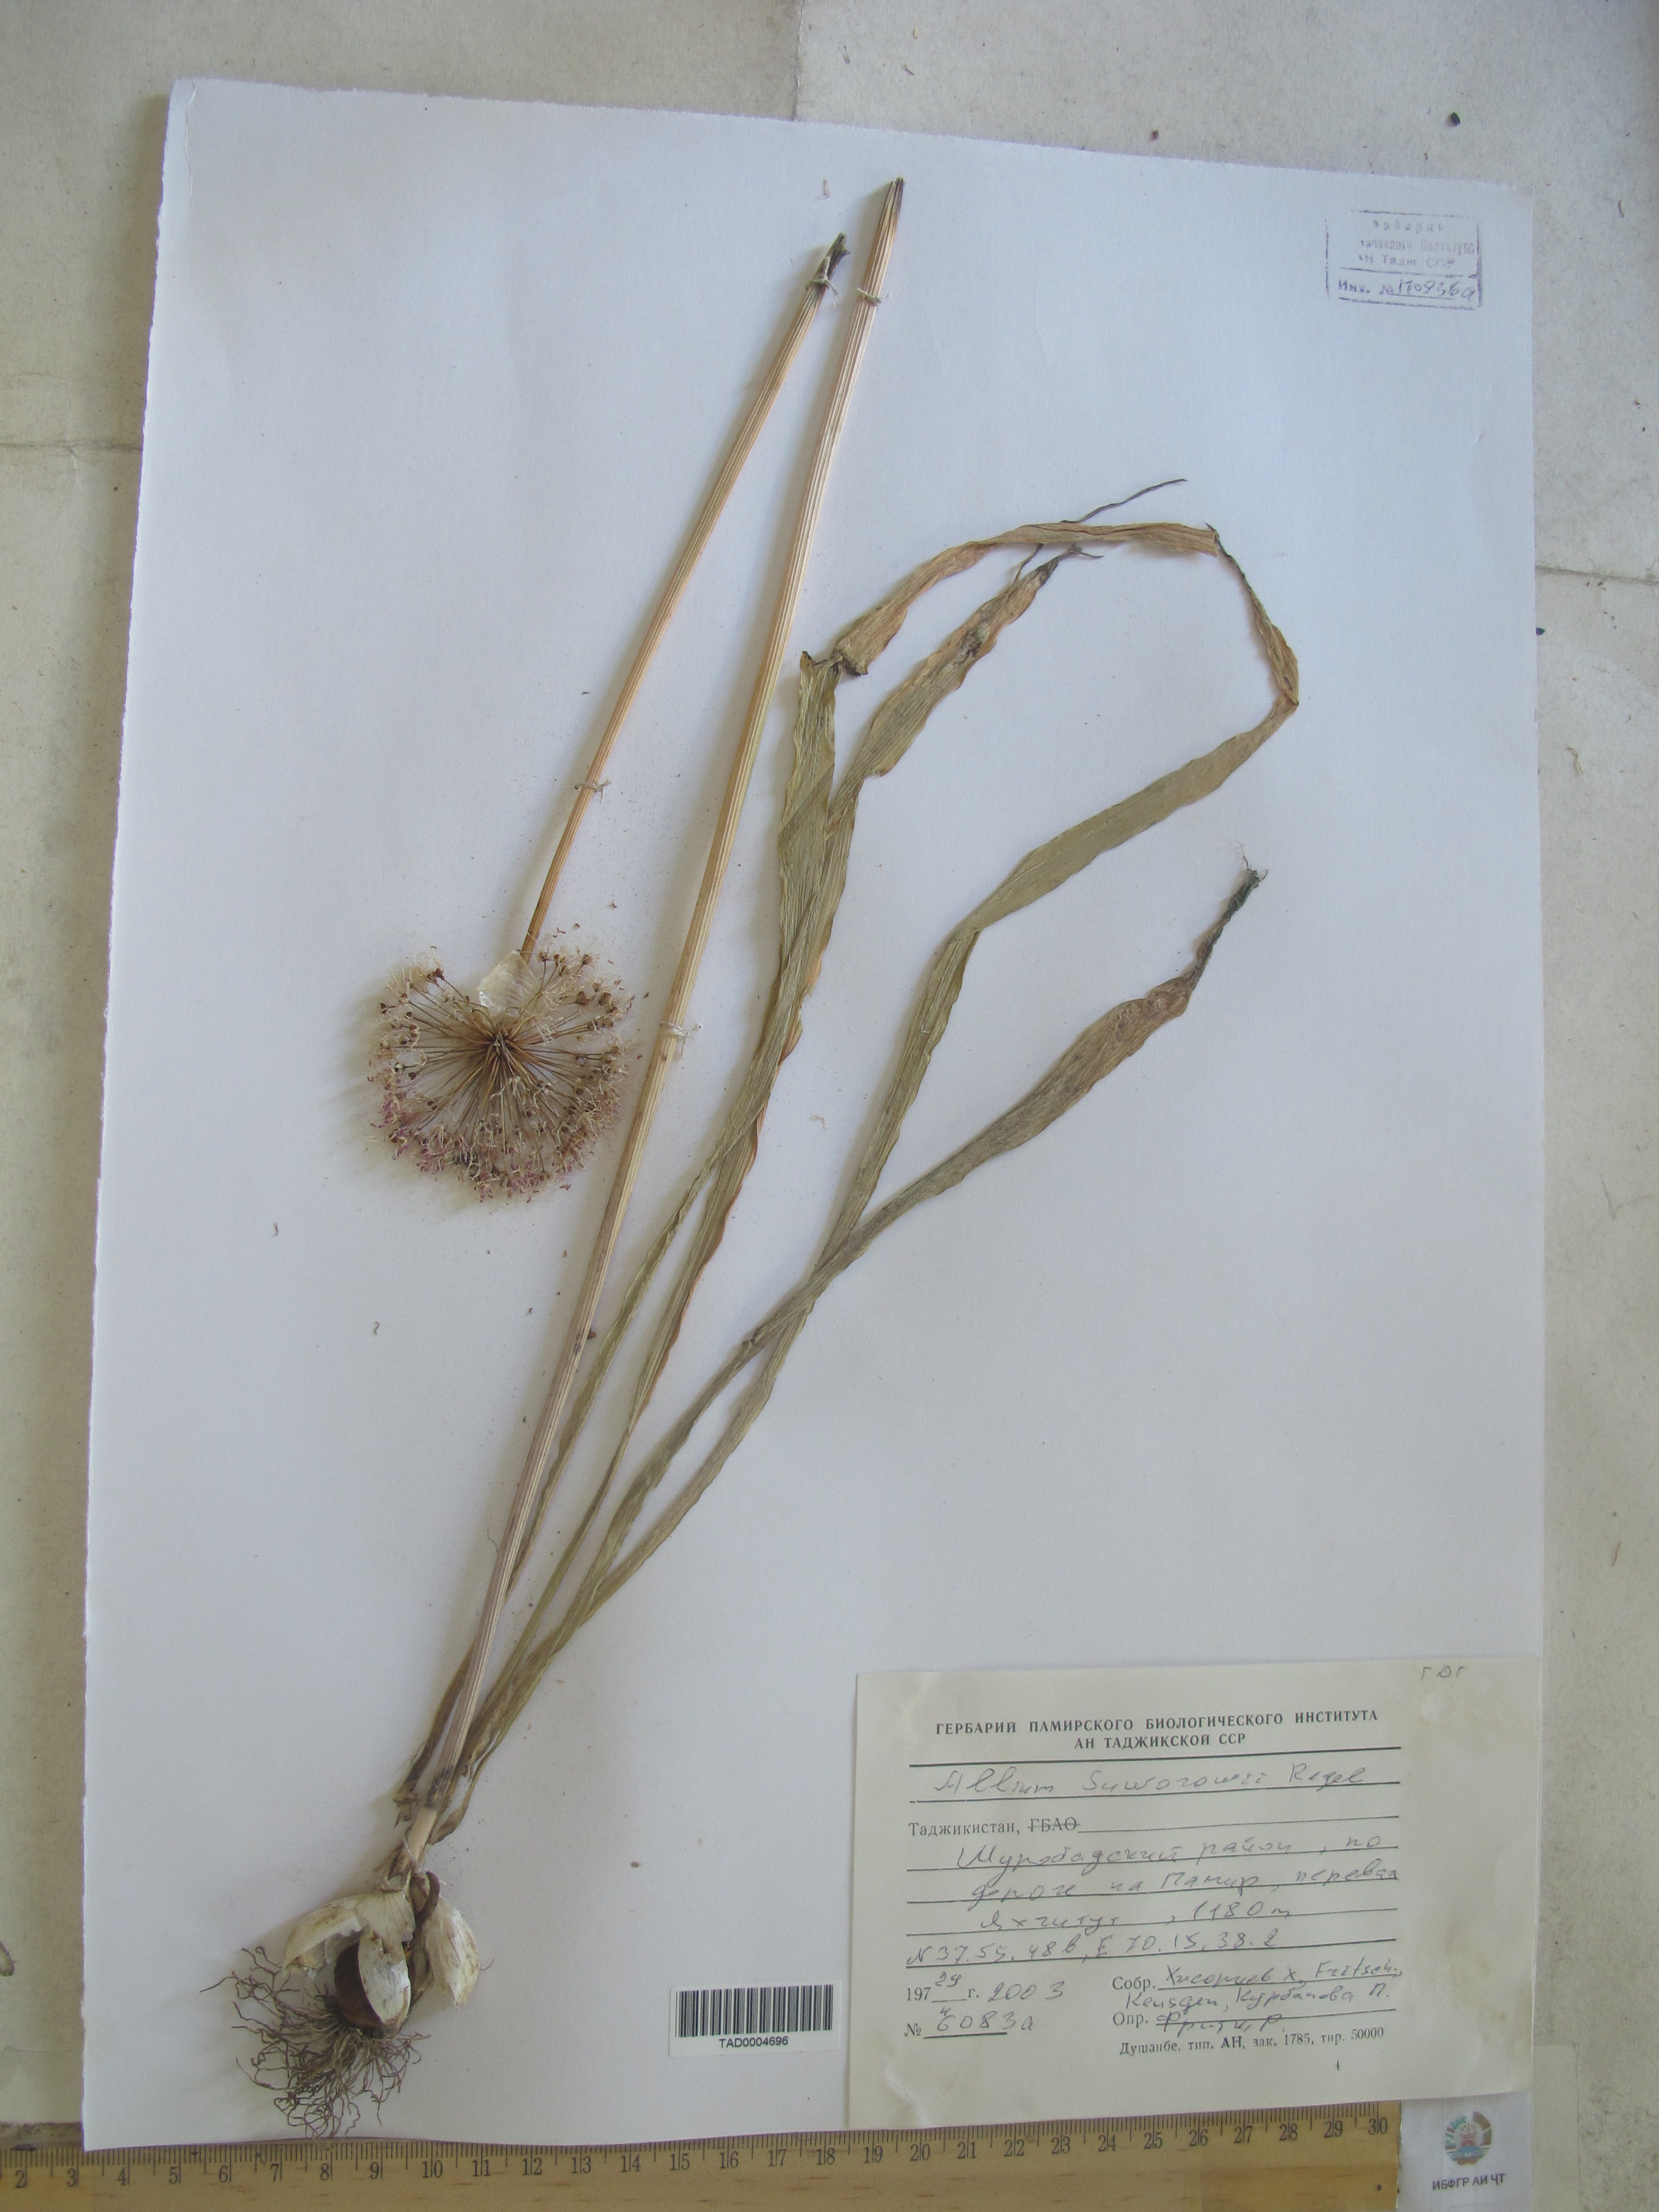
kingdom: Plantae
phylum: Tracheophyta
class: Liliopsida
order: Asparagales
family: Amaryllidaceae
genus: Allium
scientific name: Allium suworowii
